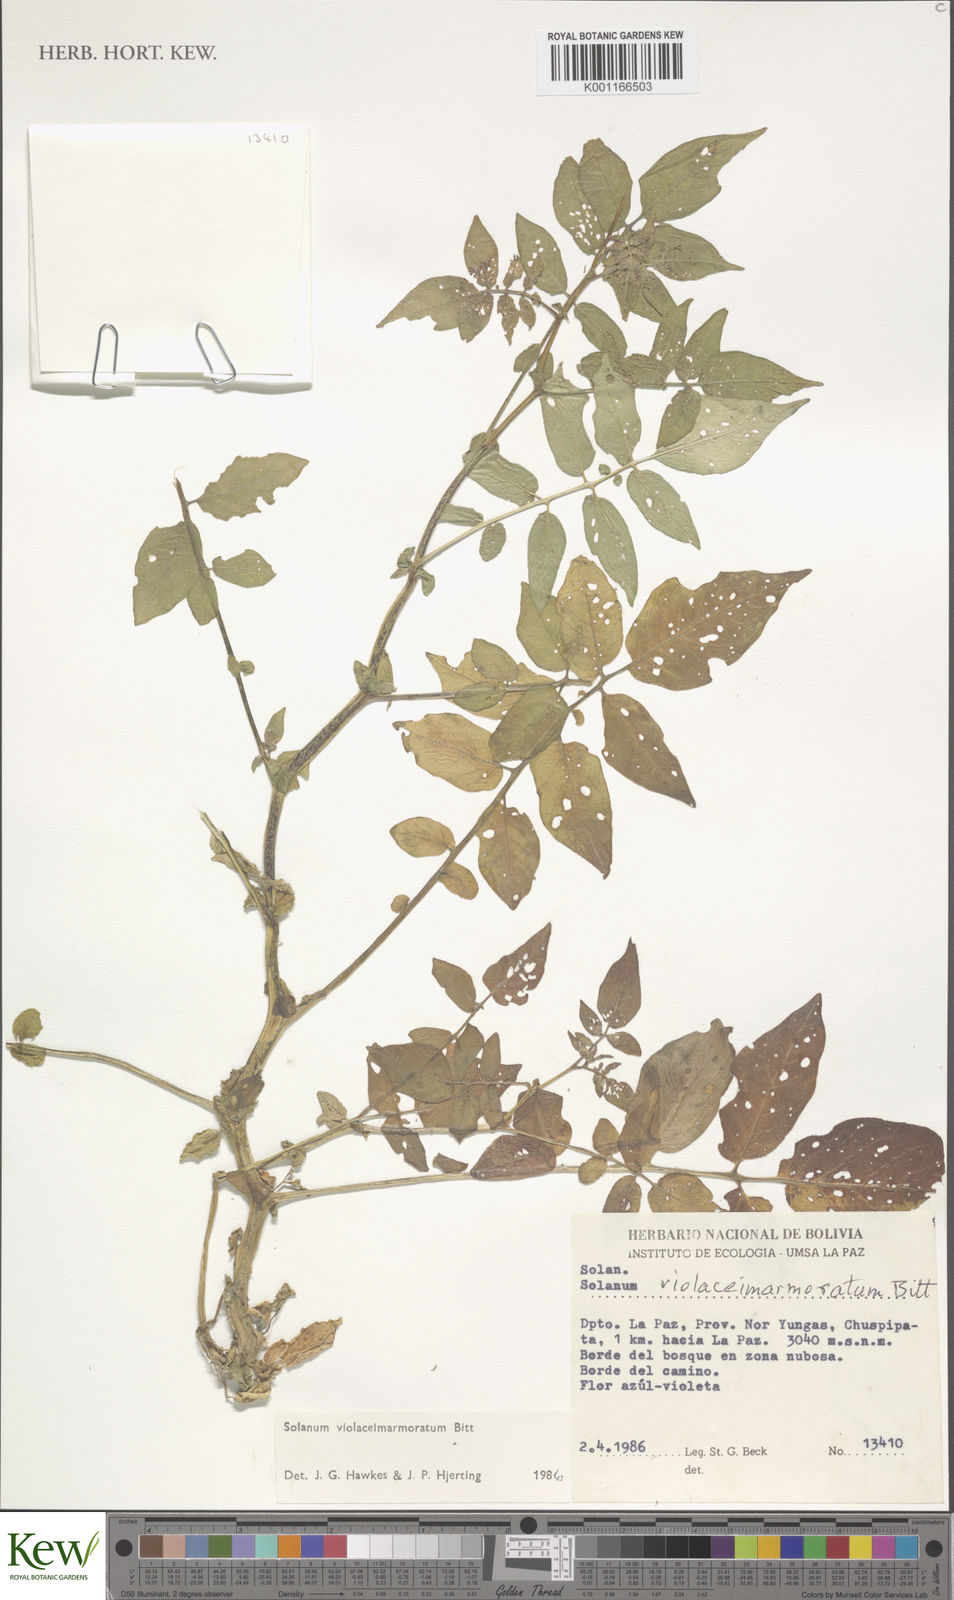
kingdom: Plantae
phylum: Tracheophyta
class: Magnoliopsida
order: Solanales
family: Solanaceae
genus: Solanum
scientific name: Solanum violaceimarmoratum
